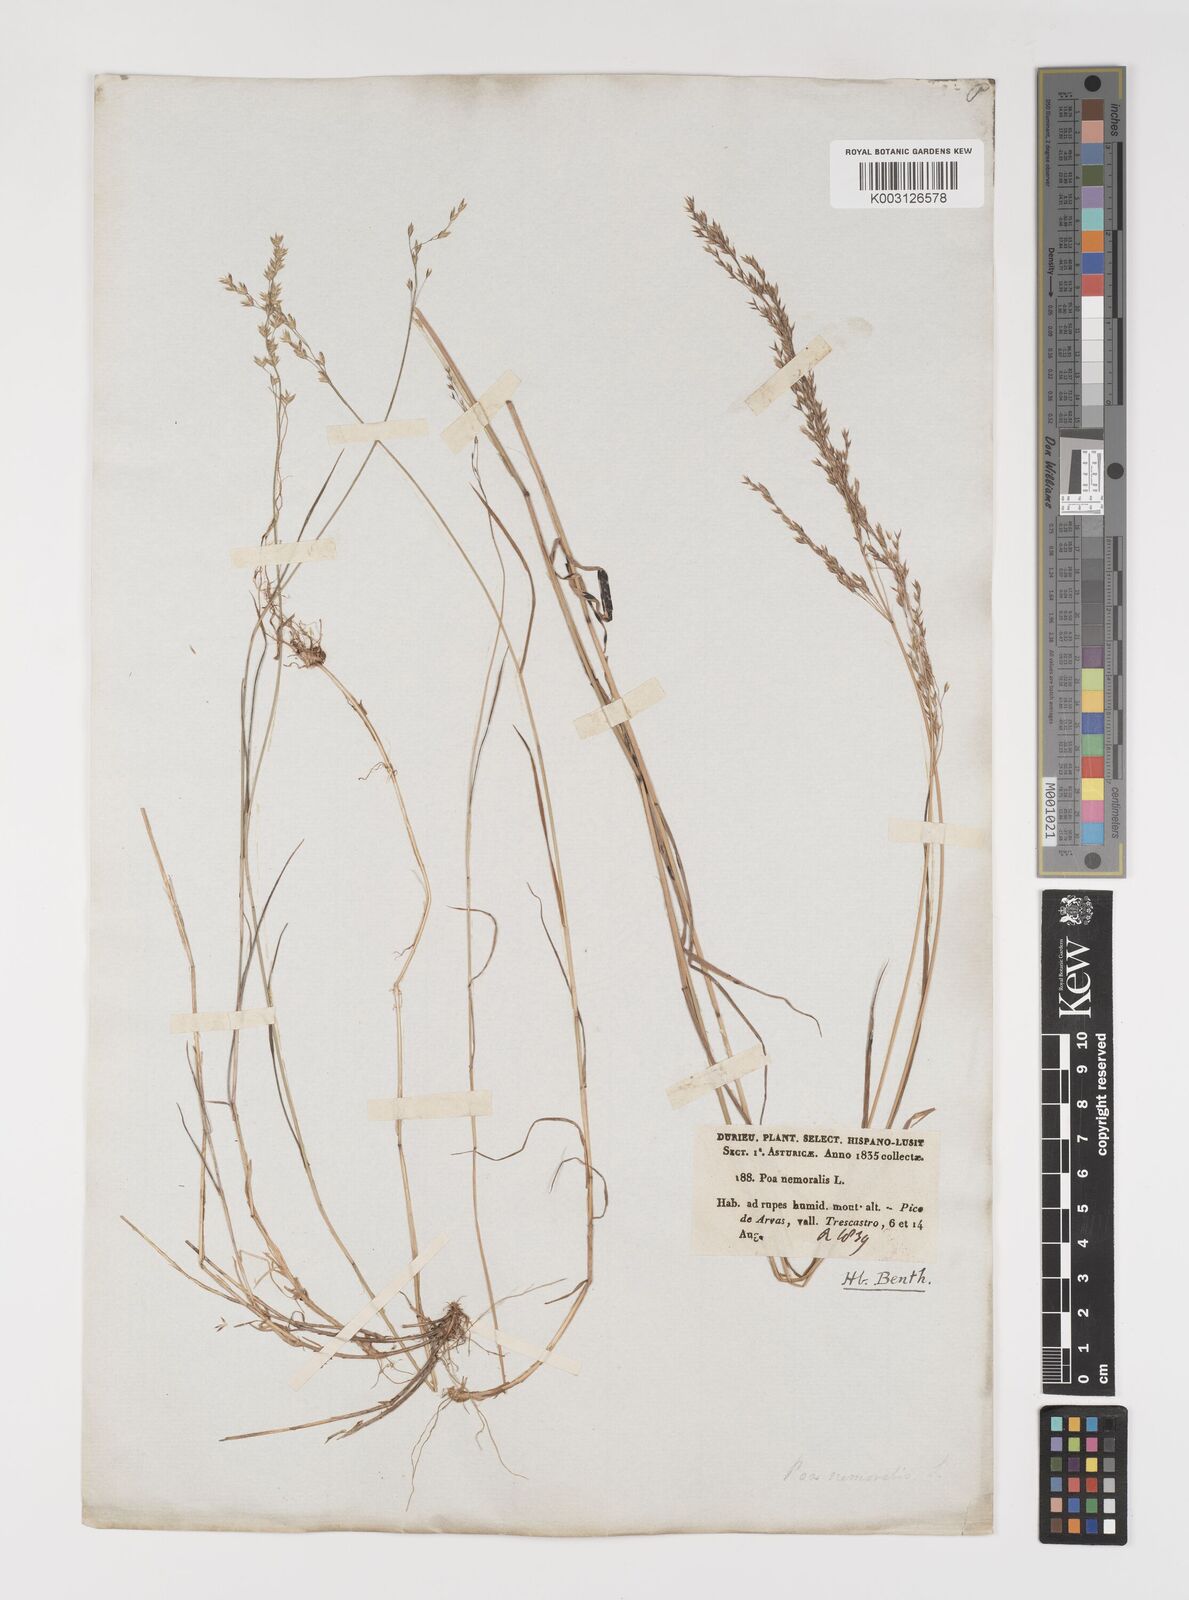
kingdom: Plantae
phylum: Tracheophyta
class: Liliopsida
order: Poales
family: Poaceae
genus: Poa
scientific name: Poa nemoralis
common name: Wood bluegrass
